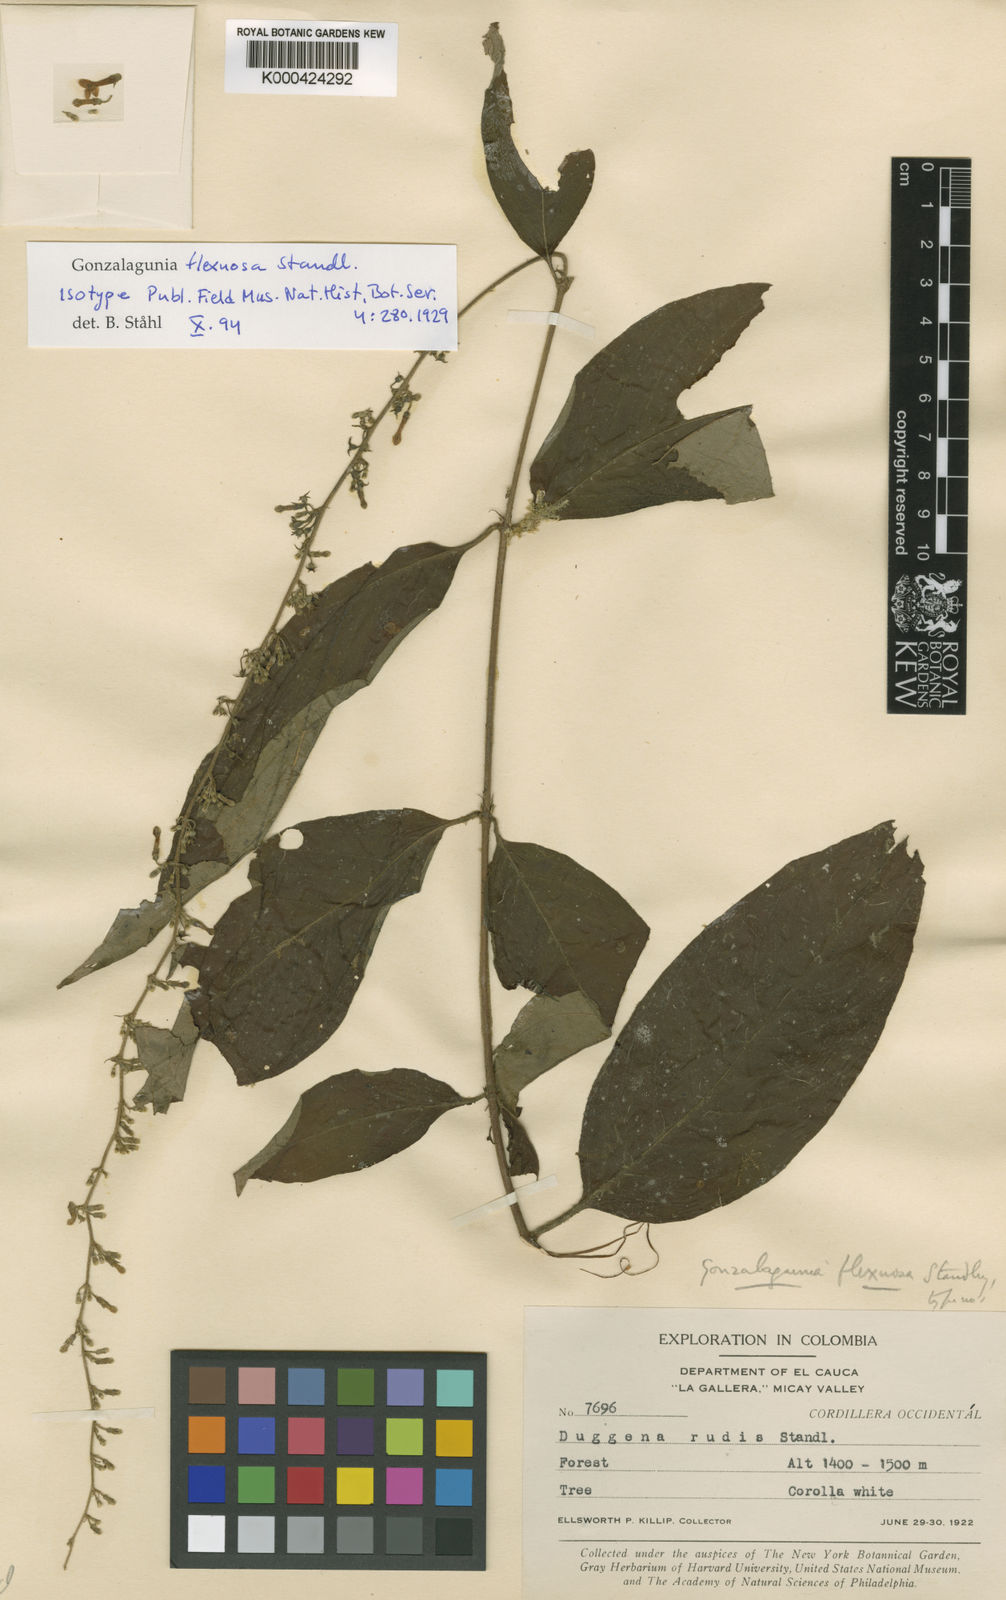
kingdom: Plantae
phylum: Tracheophyta
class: Magnoliopsida
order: Gentianales
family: Rubiaceae
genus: Gonzalagunia
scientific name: Gonzalagunia cornifolia
